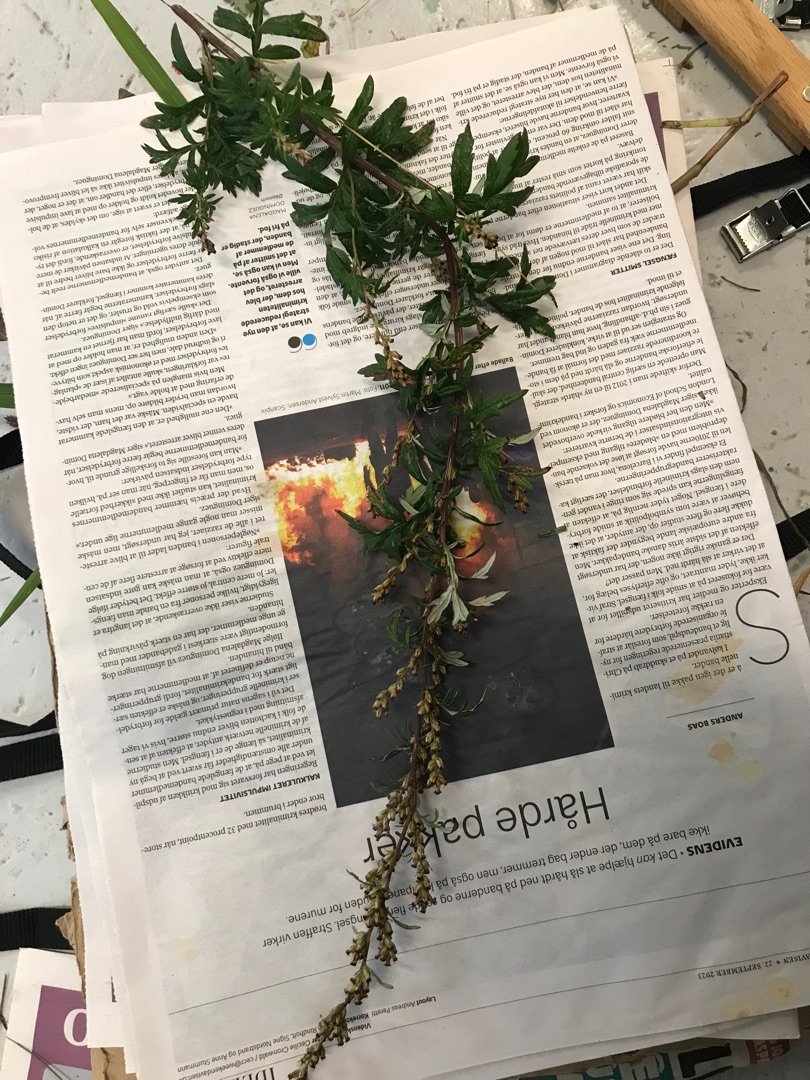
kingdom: Plantae
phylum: Tracheophyta
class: Magnoliopsida
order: Asterales
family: Asteraceae
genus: Artemisia
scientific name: Artemisia vulgaris
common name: Grå-bynke
